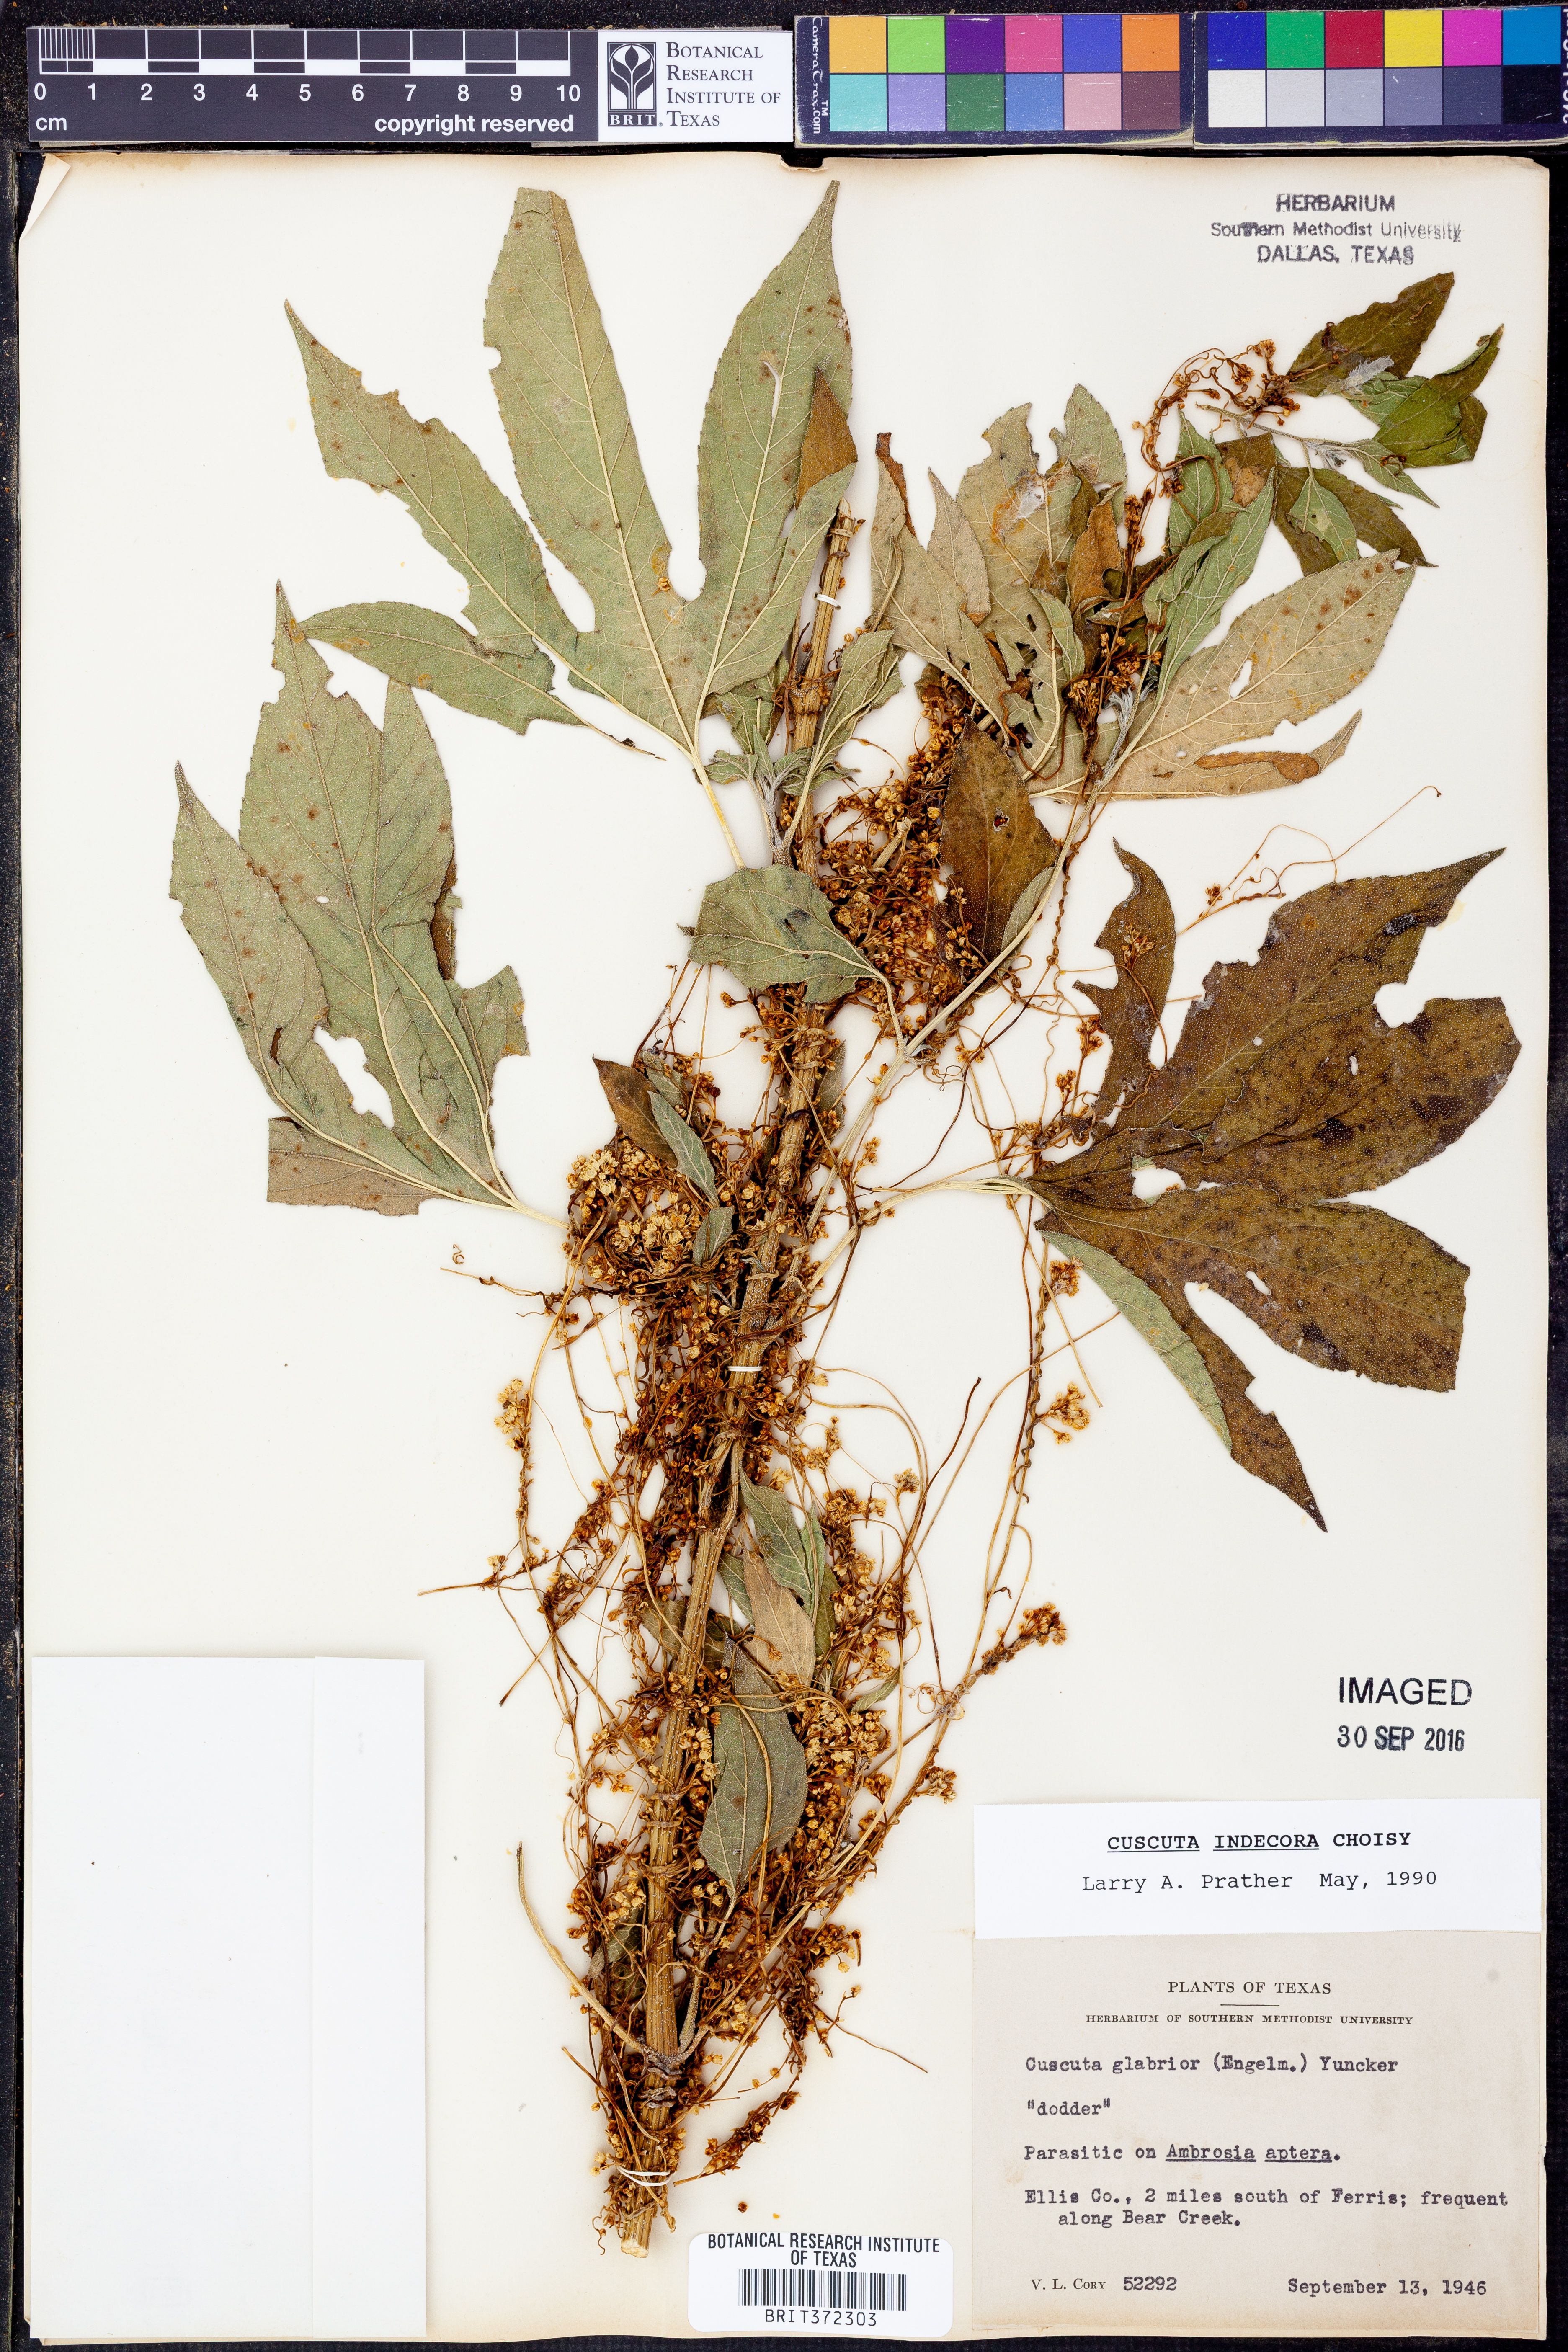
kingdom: Plantae
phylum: Tracheophyta
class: Magnoliopsida
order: Solanales
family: Convolvulaceae
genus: Cuscuta
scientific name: Cuscuta indecora
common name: Large-seed dodder
